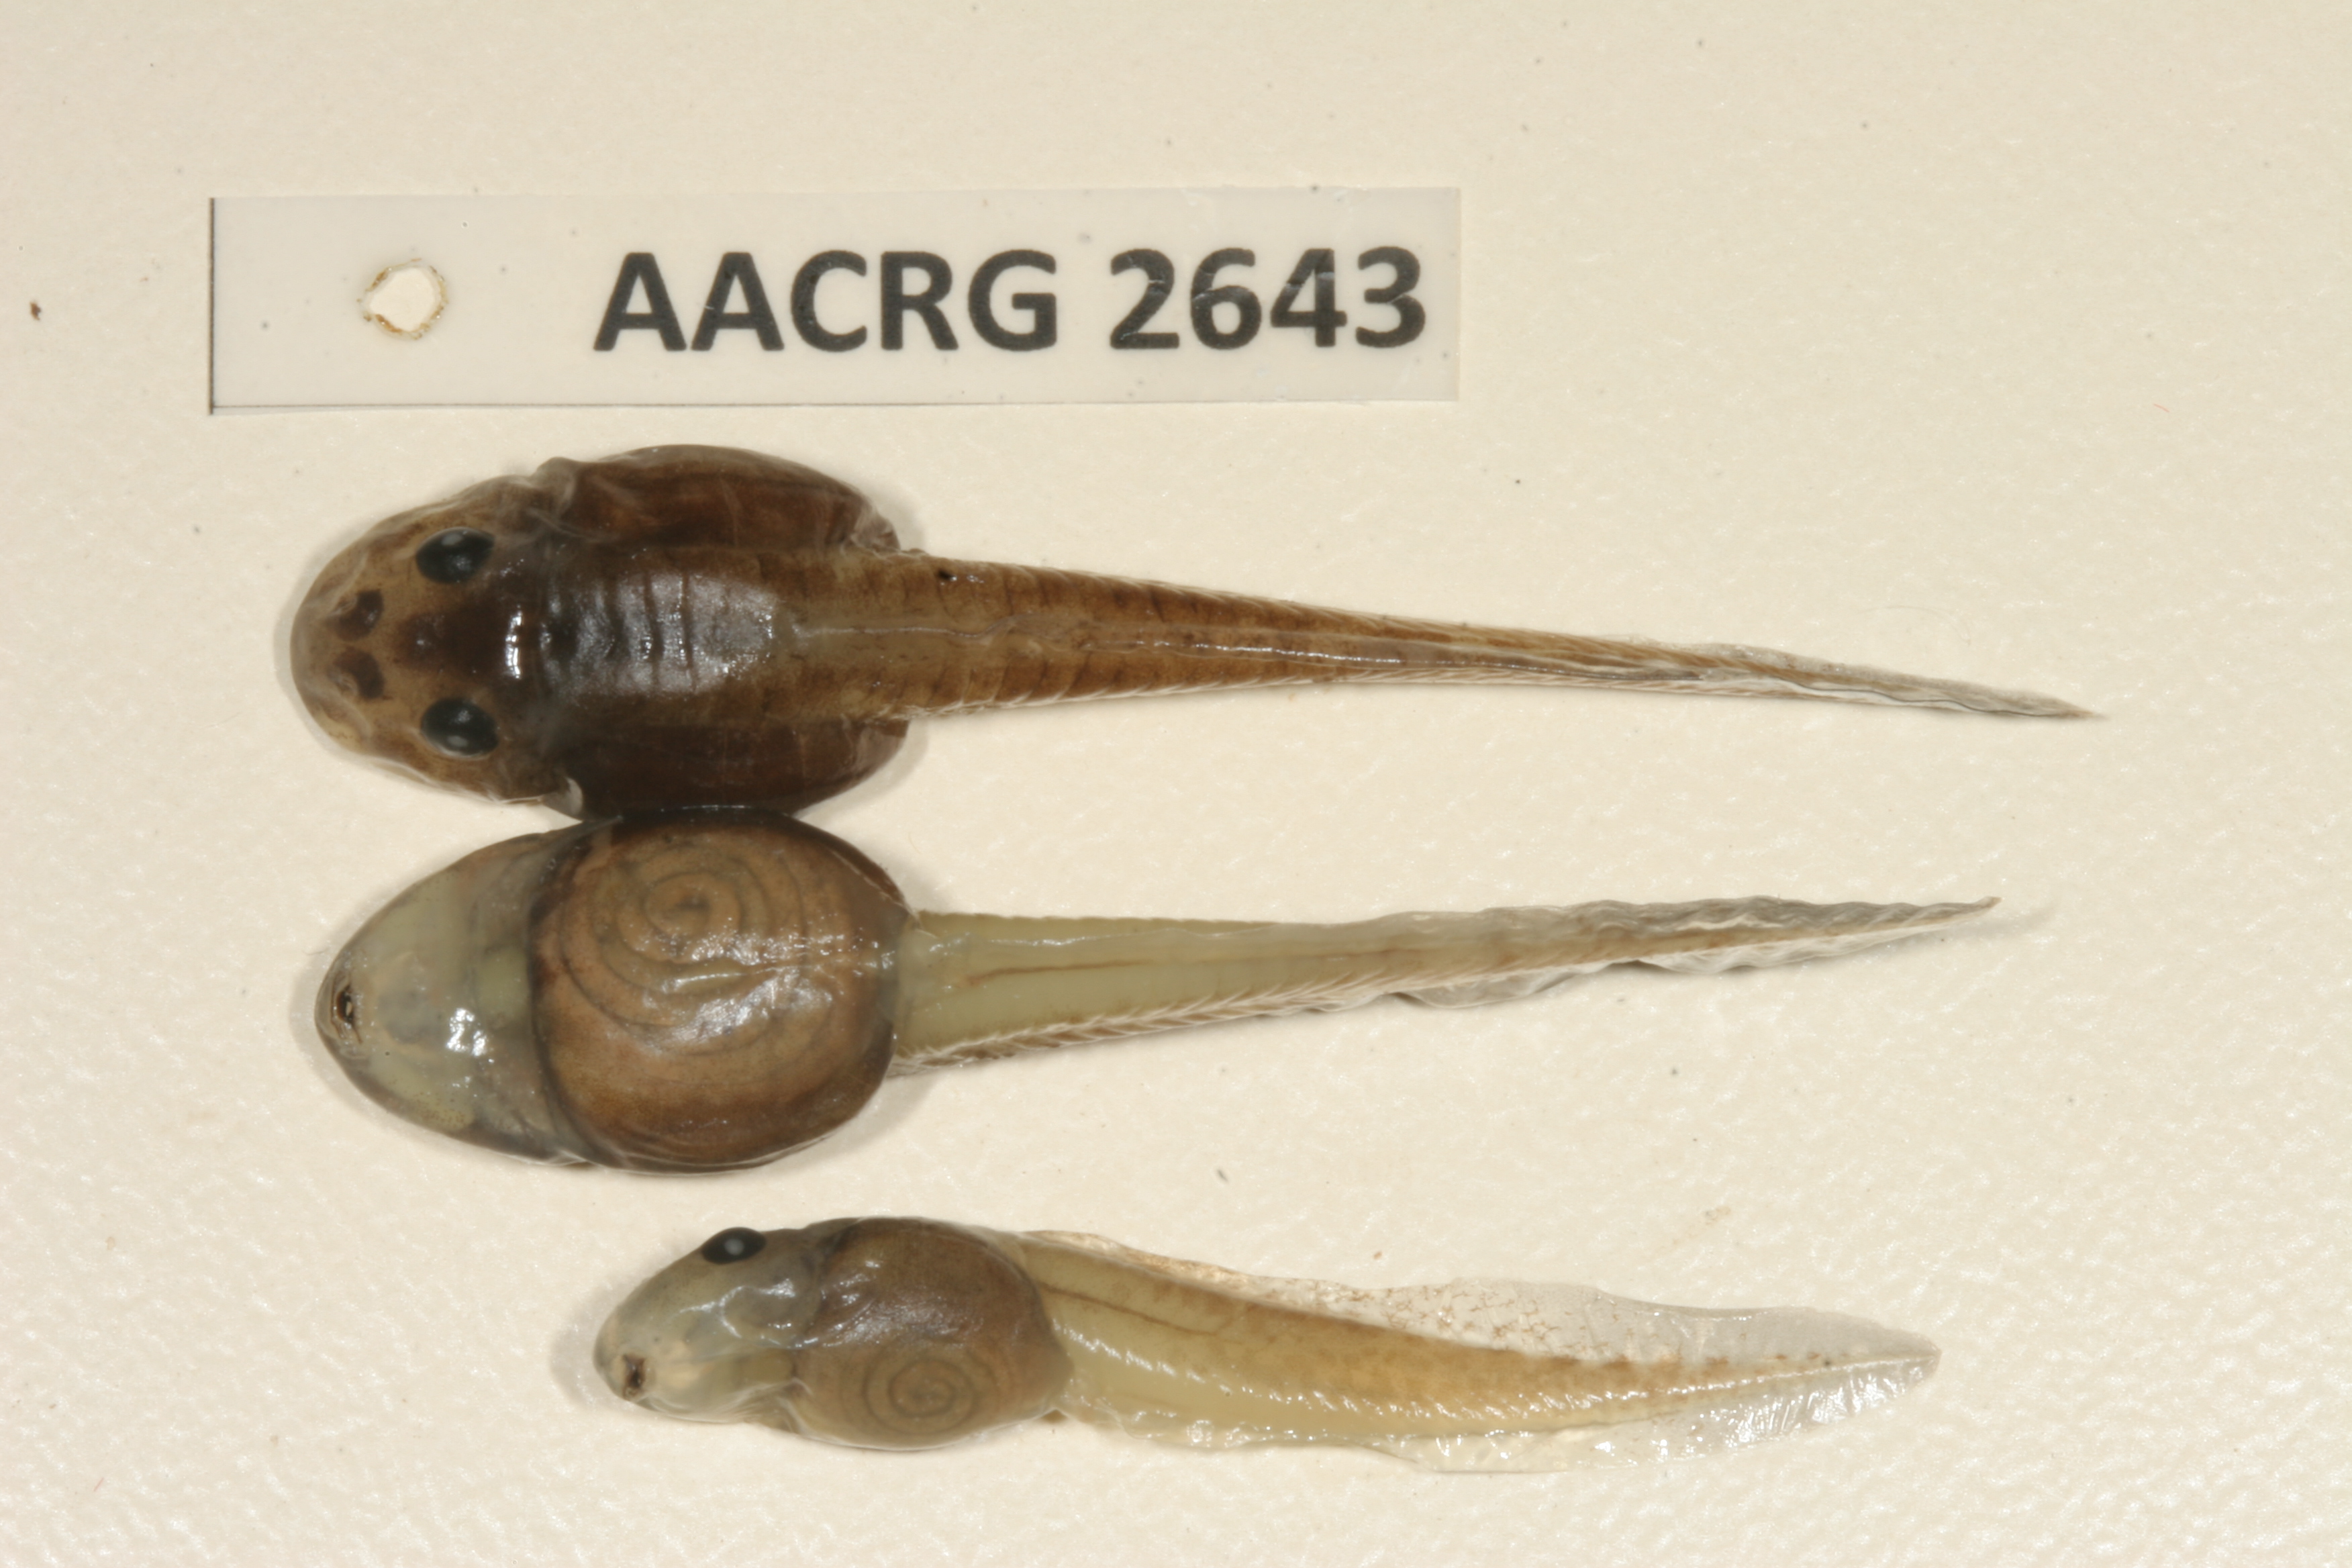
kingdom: Animalia
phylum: Chordata
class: Amphibia
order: Anura
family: Pyxicephalidae
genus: Amietia
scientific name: Amietia fuscigula
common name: Cape rana
